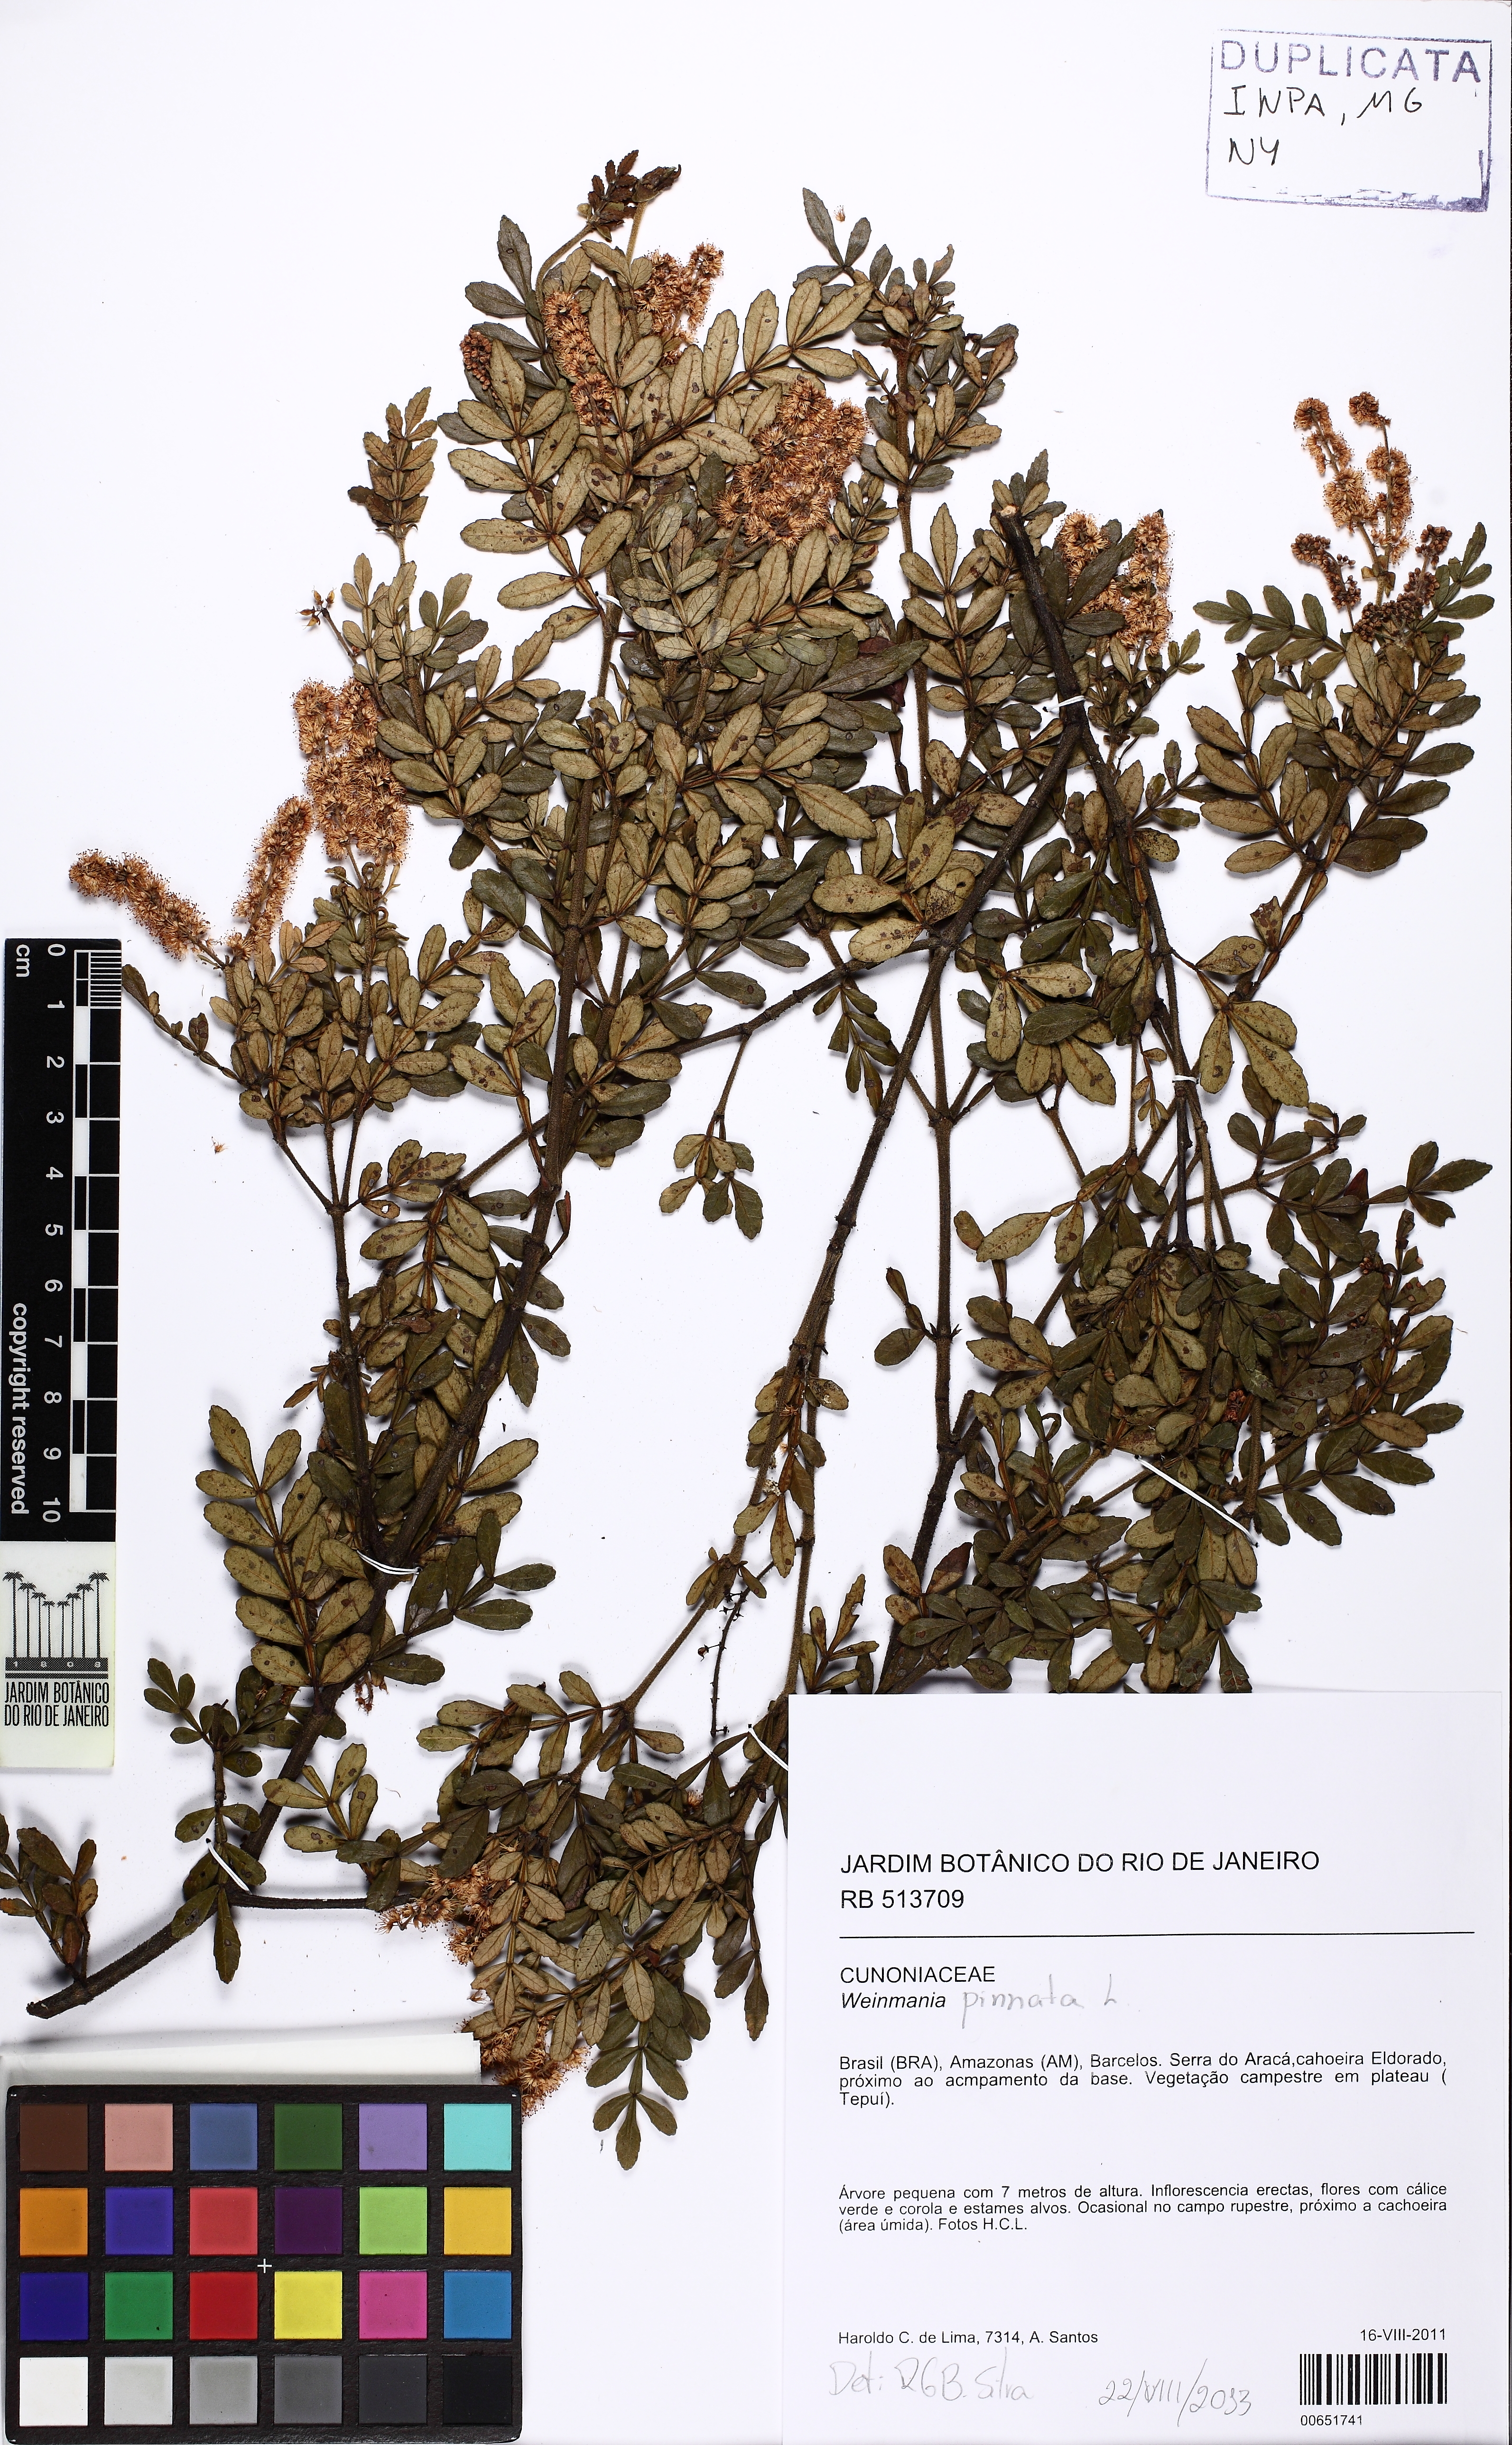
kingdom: Plantae
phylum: Tracheophyta
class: Magnoliopsida
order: Oxalidales
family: Cunoniaceae
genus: Weinmannia
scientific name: Weinmannia pinnata
